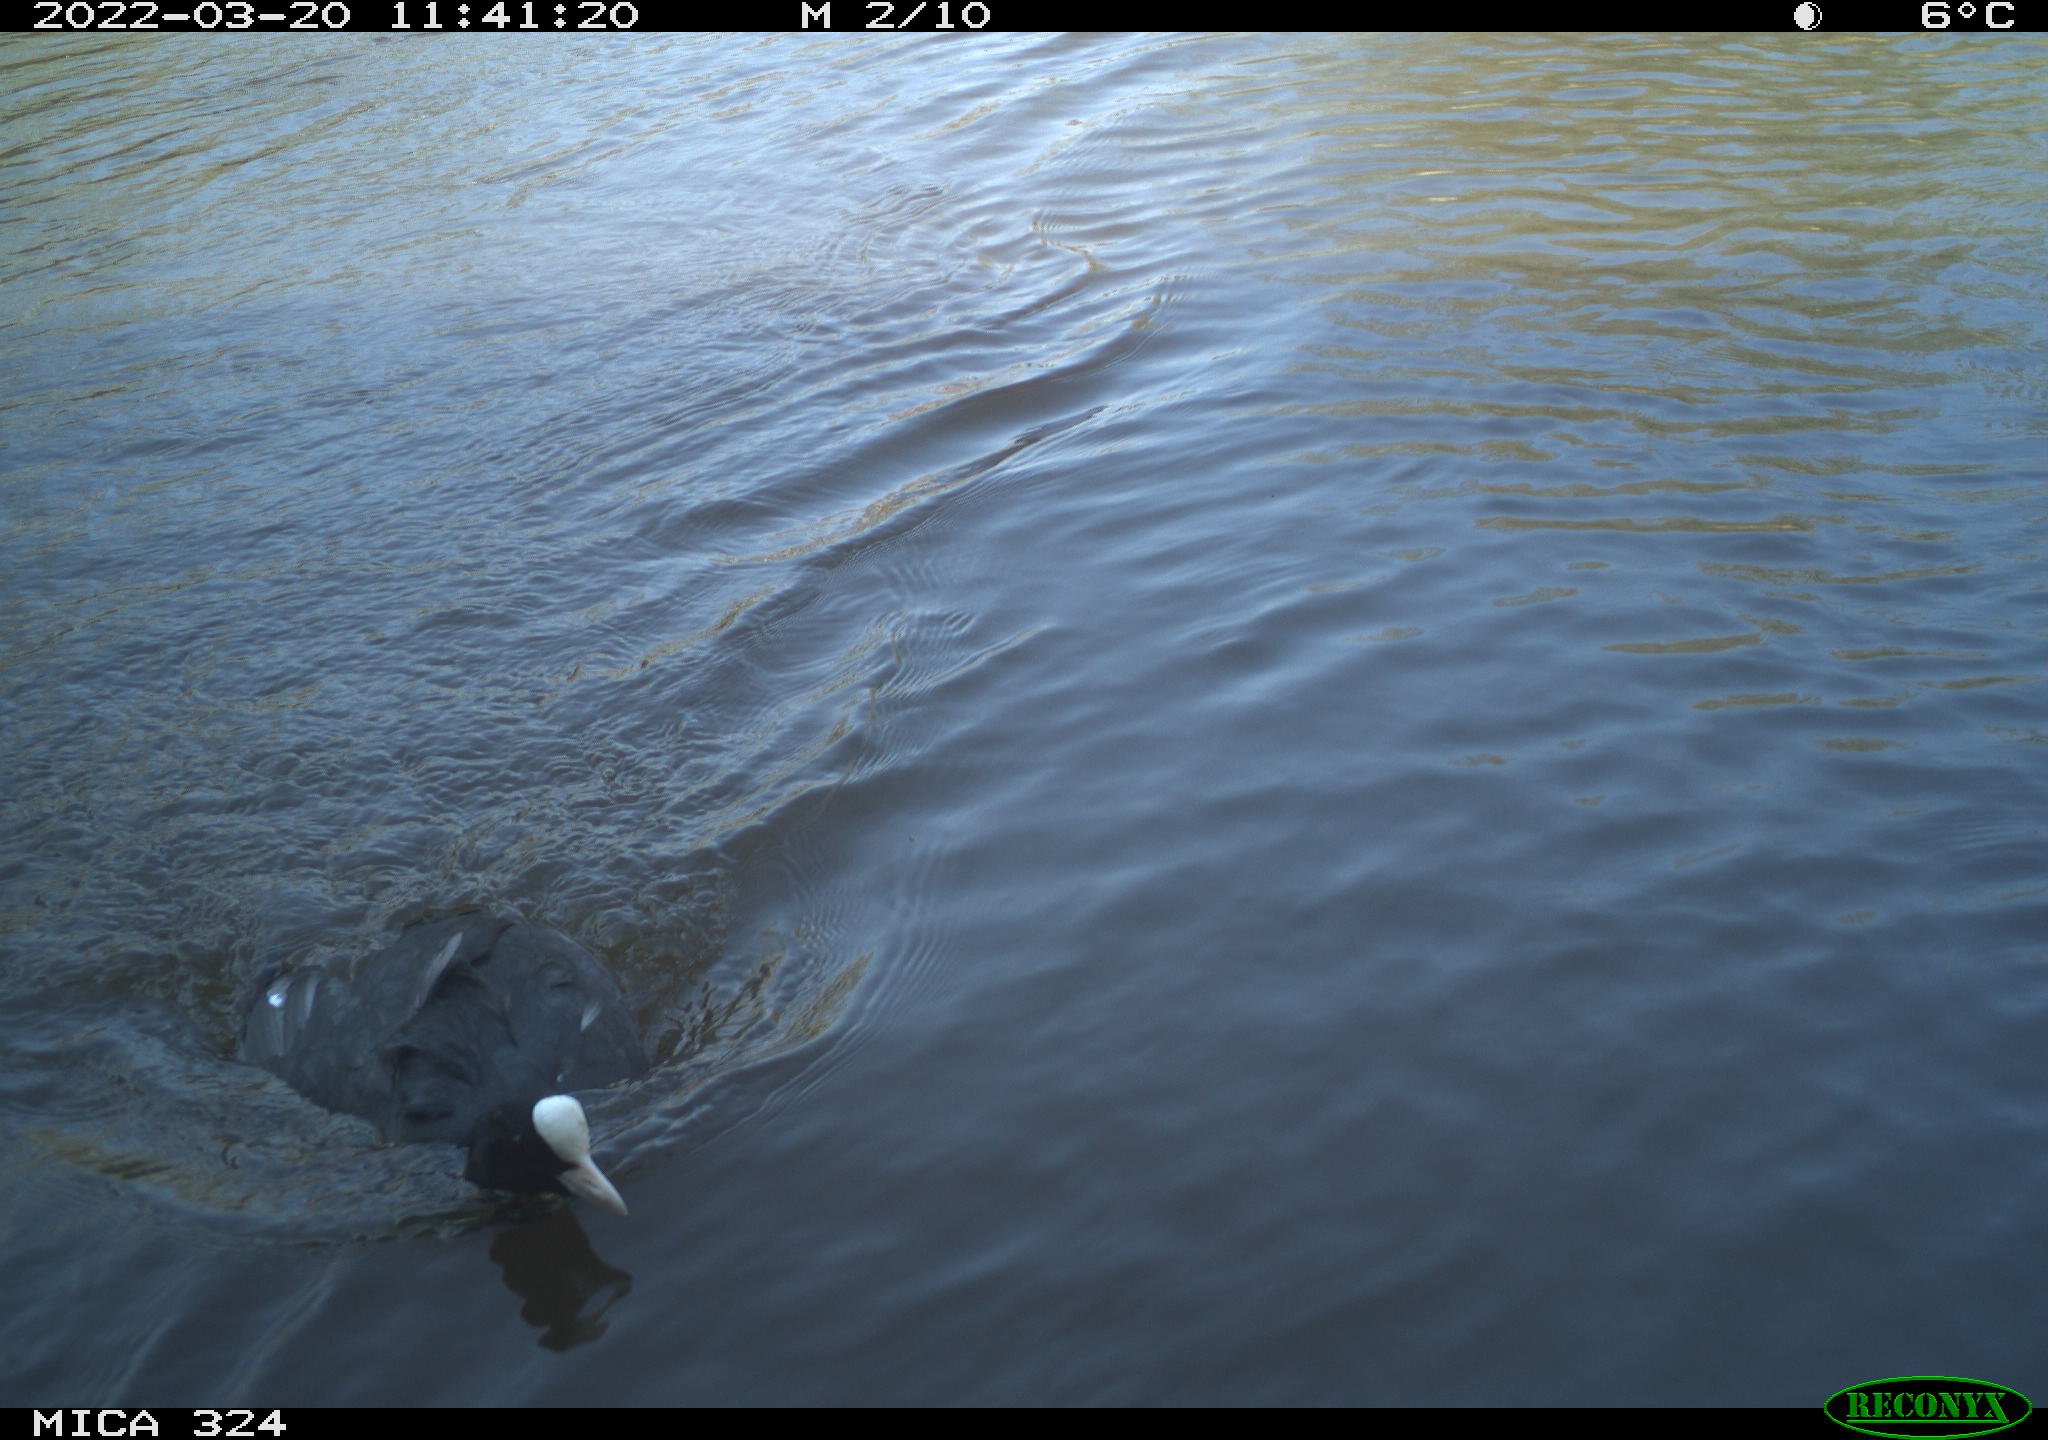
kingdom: Animalia
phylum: Chordata
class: Aves
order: Gruiformes
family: Rallidae
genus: Fulica
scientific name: Fulica atra
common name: Eurasian coot
